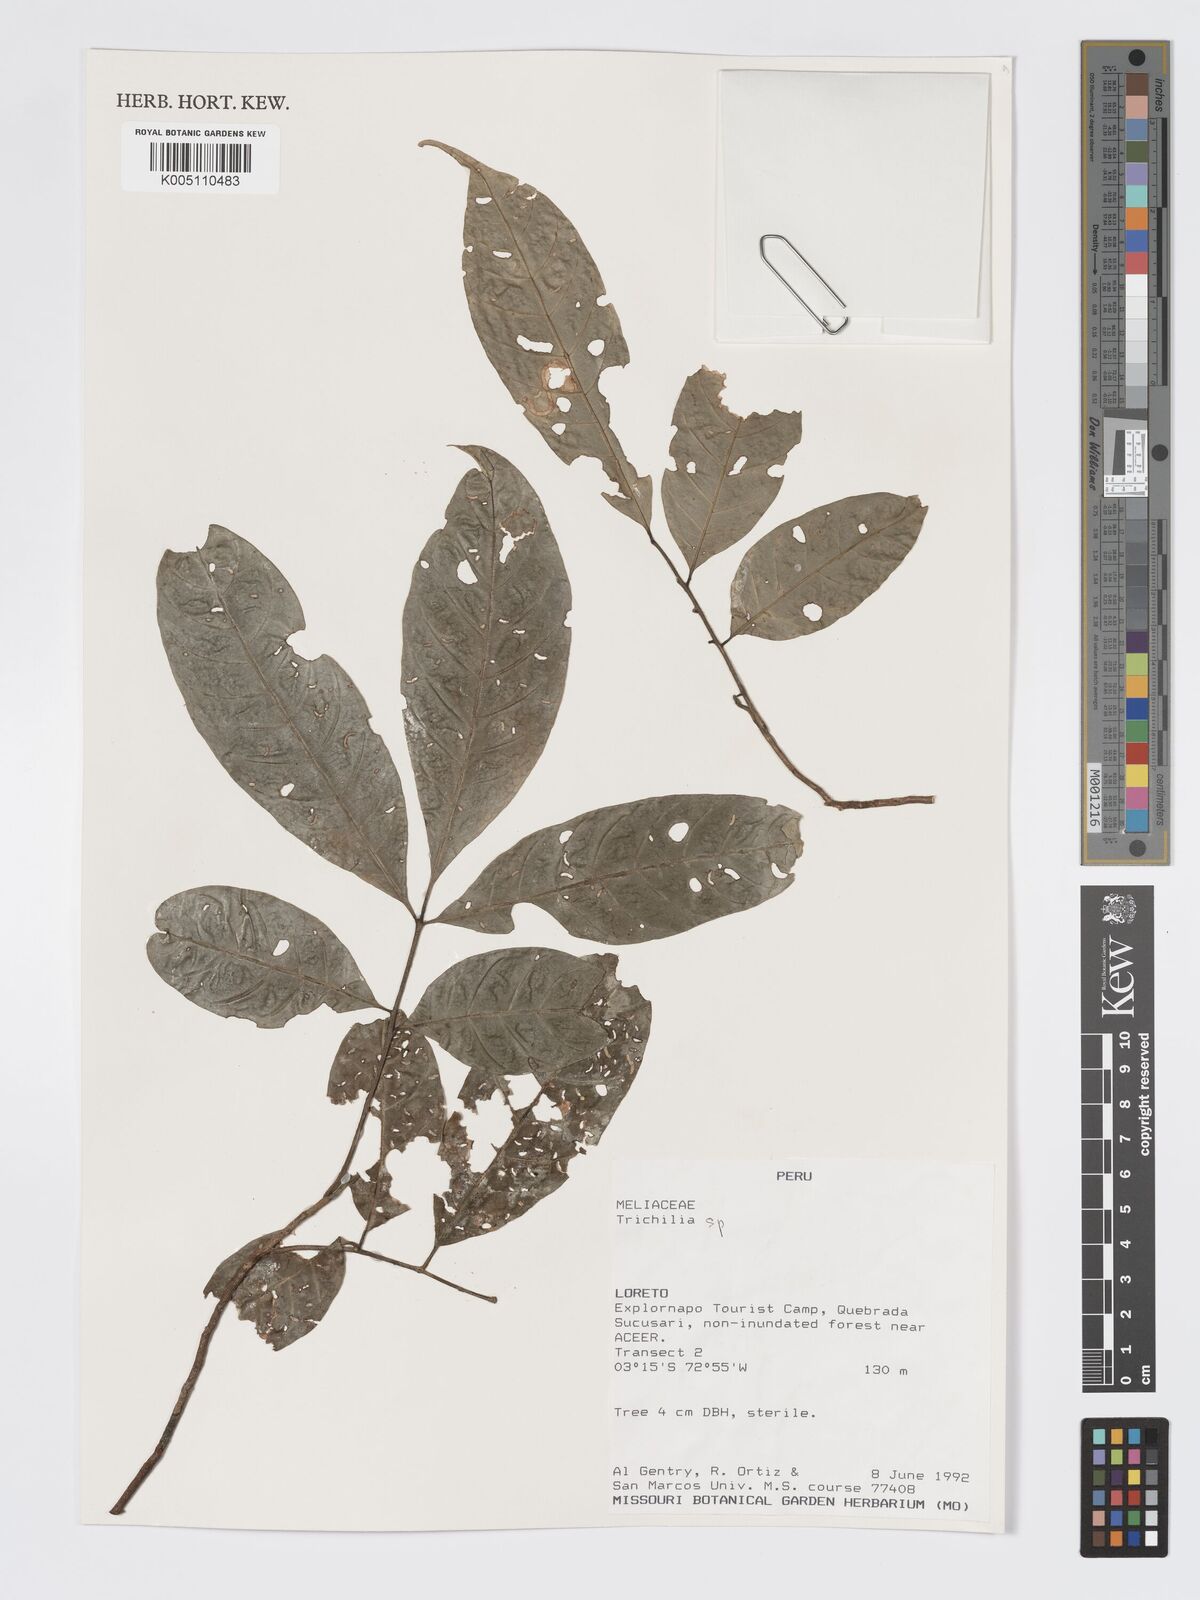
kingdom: Plantae
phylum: Tracheophyta
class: Magnoliopsida
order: Sapindales
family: Meliaceae
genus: Trichilia
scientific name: Trichilia
